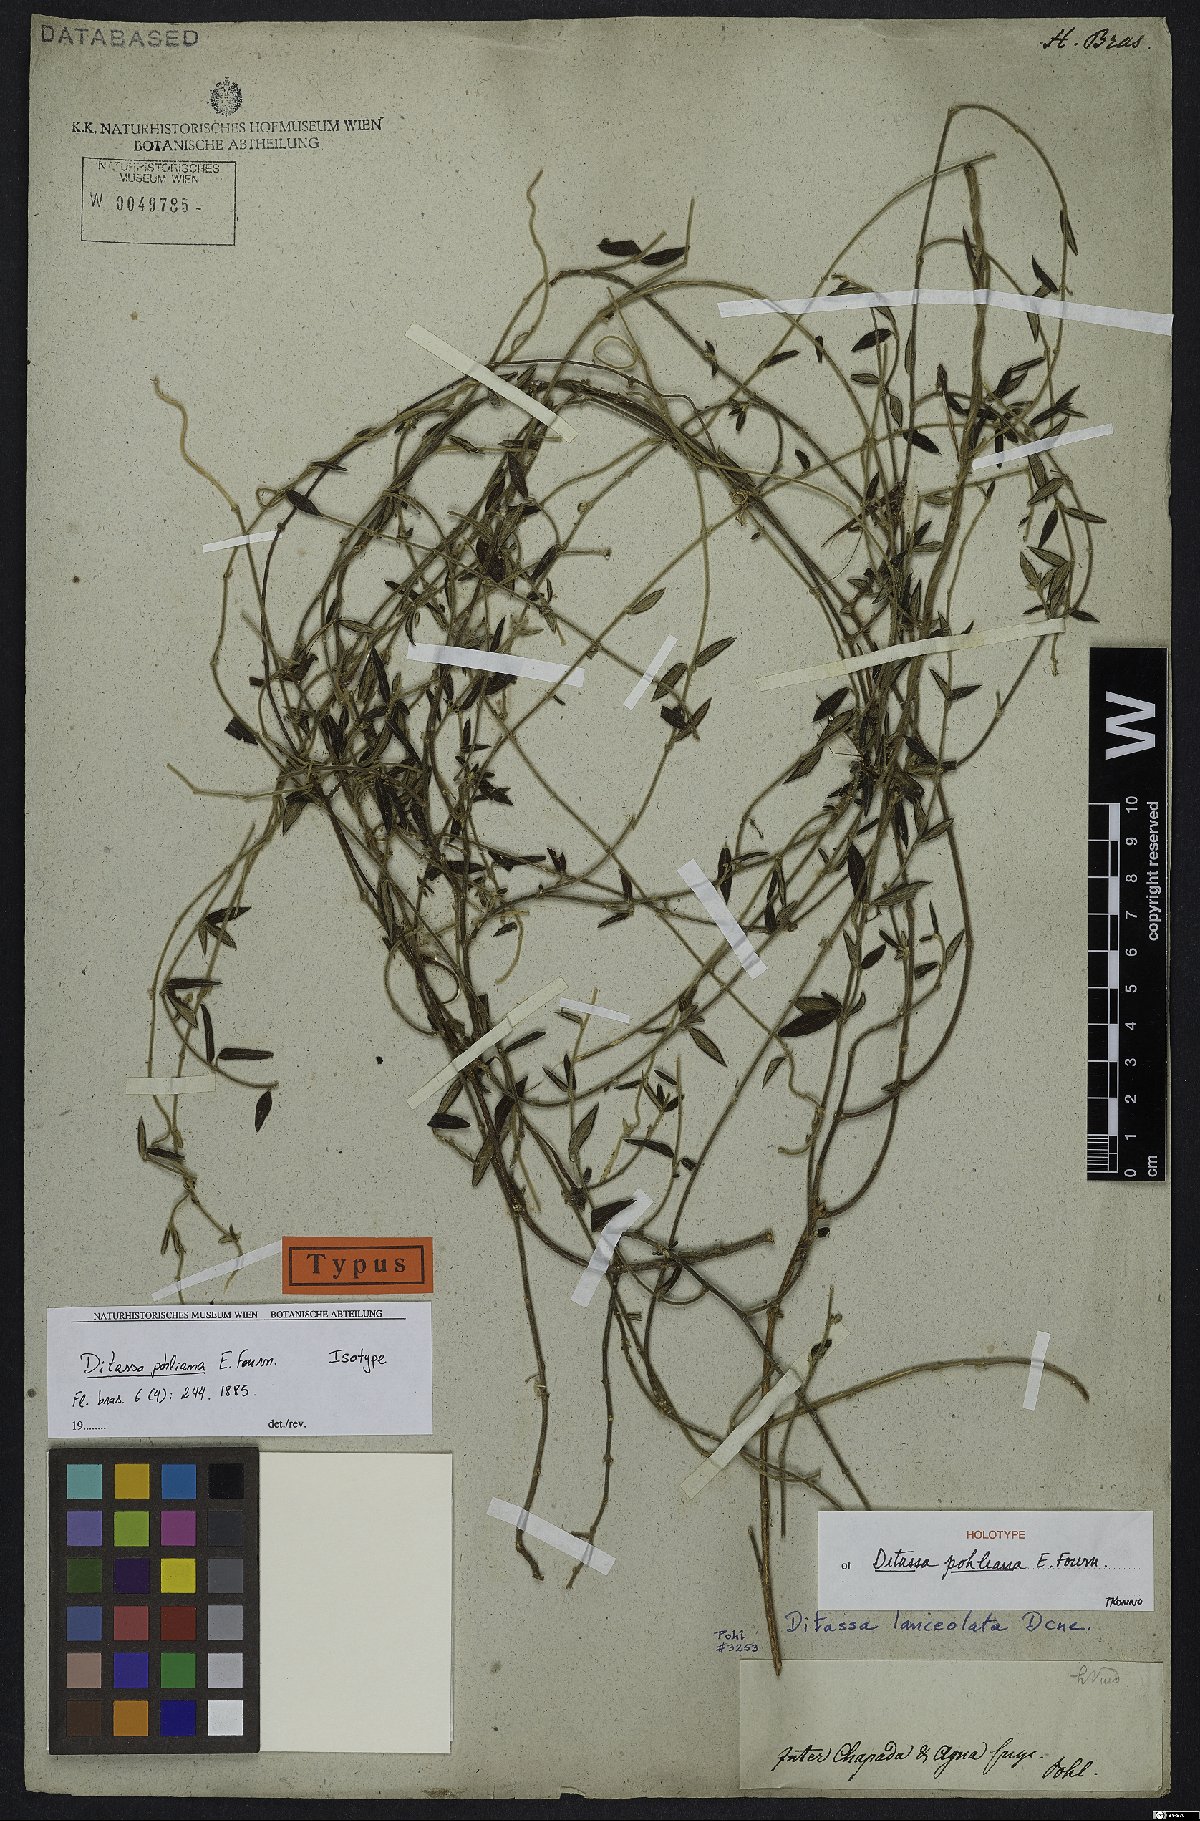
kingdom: Plantae
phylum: Tracheophyta
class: Magnoliopsida
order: Gentianales
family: Apocynaceae
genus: Ditassa
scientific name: Ditassa pohliana
